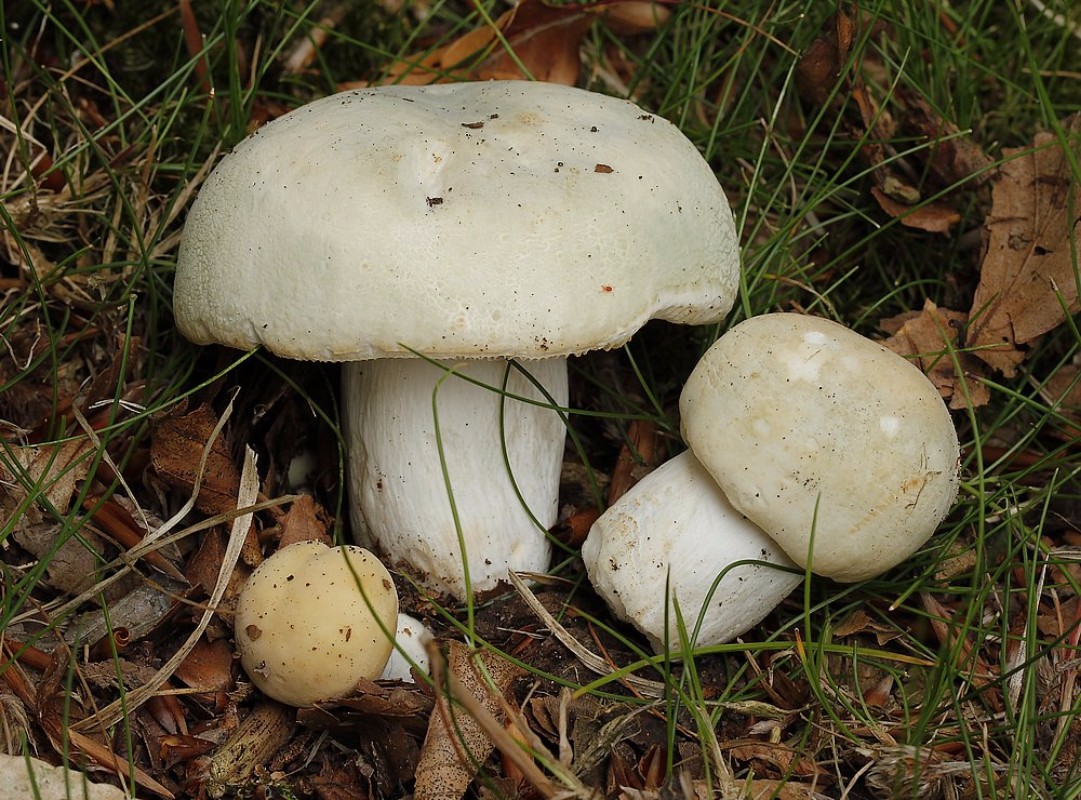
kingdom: Fungi
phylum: Basidiomycota
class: Agaricomycetes
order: Russulales
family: Russulaceae
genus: Russula
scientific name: Russula virescens
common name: spanskgrøn skørhat
